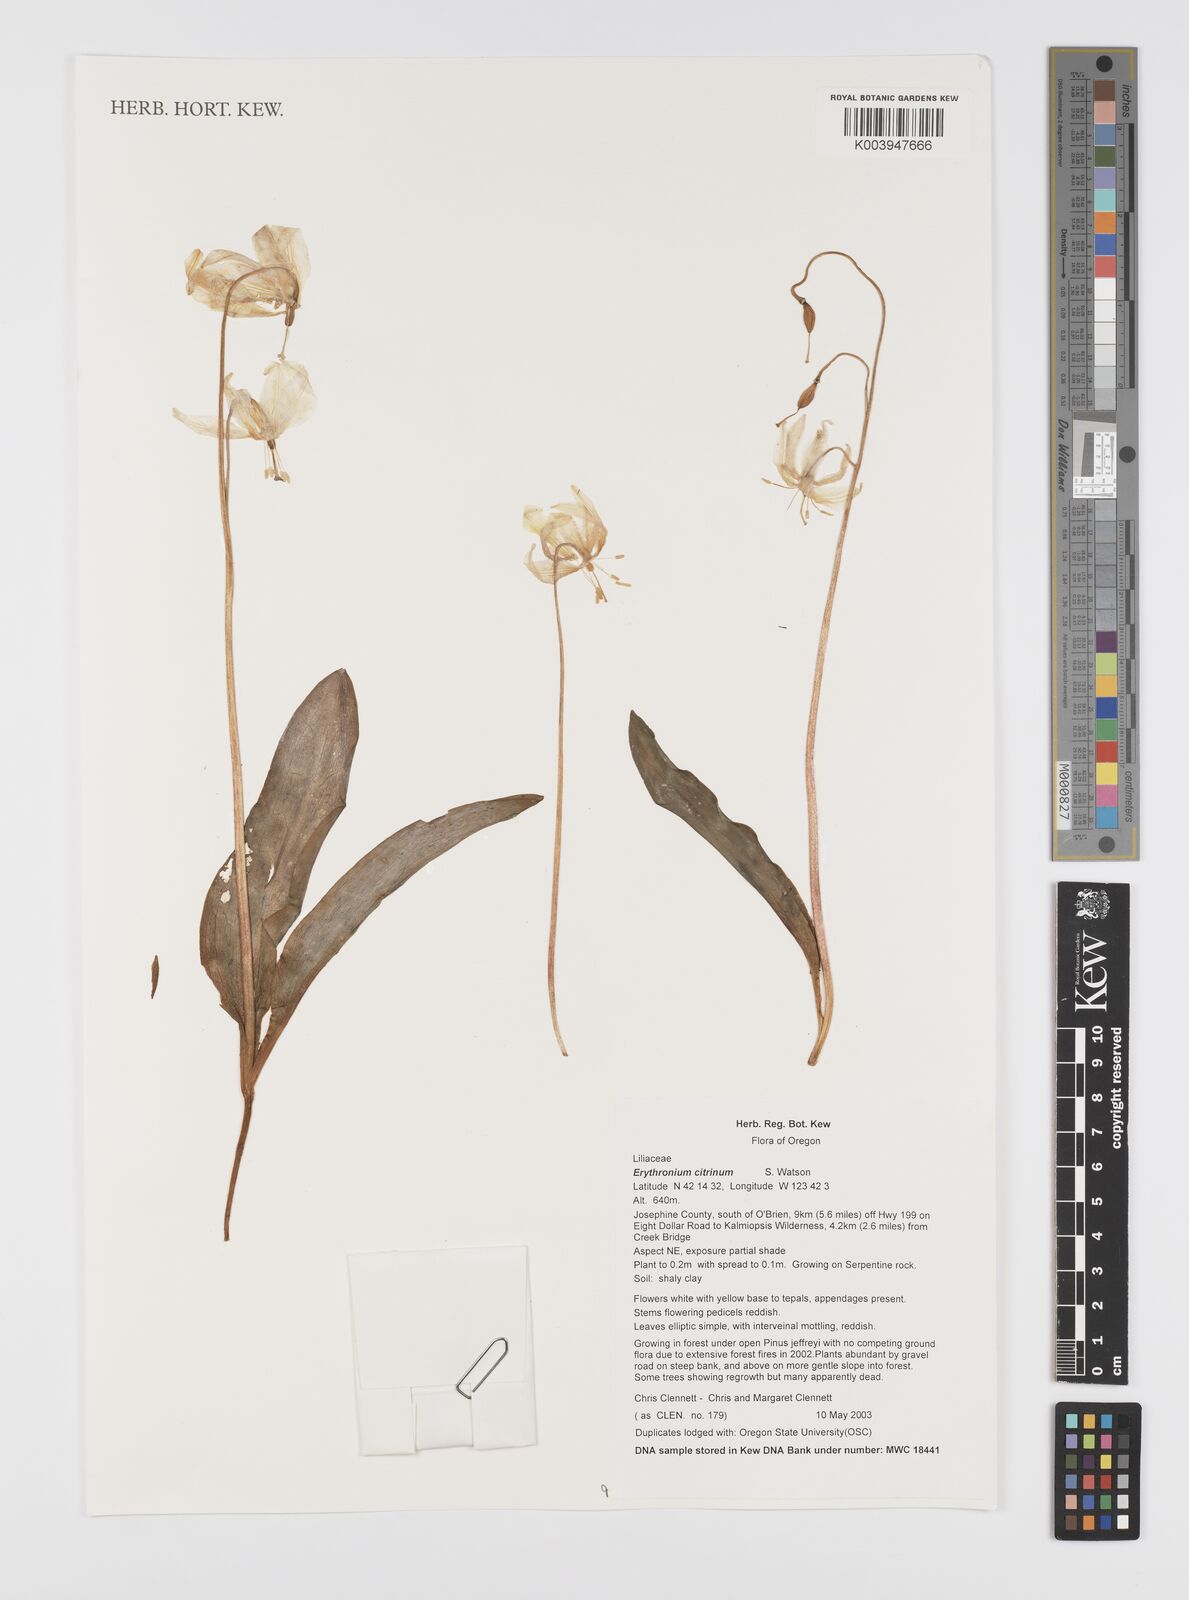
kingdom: Plantae
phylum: Tracheophyta
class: Liliopsida
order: Liliales
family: Liliaceae
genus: Erythronium
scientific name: Erythronium citrinum
